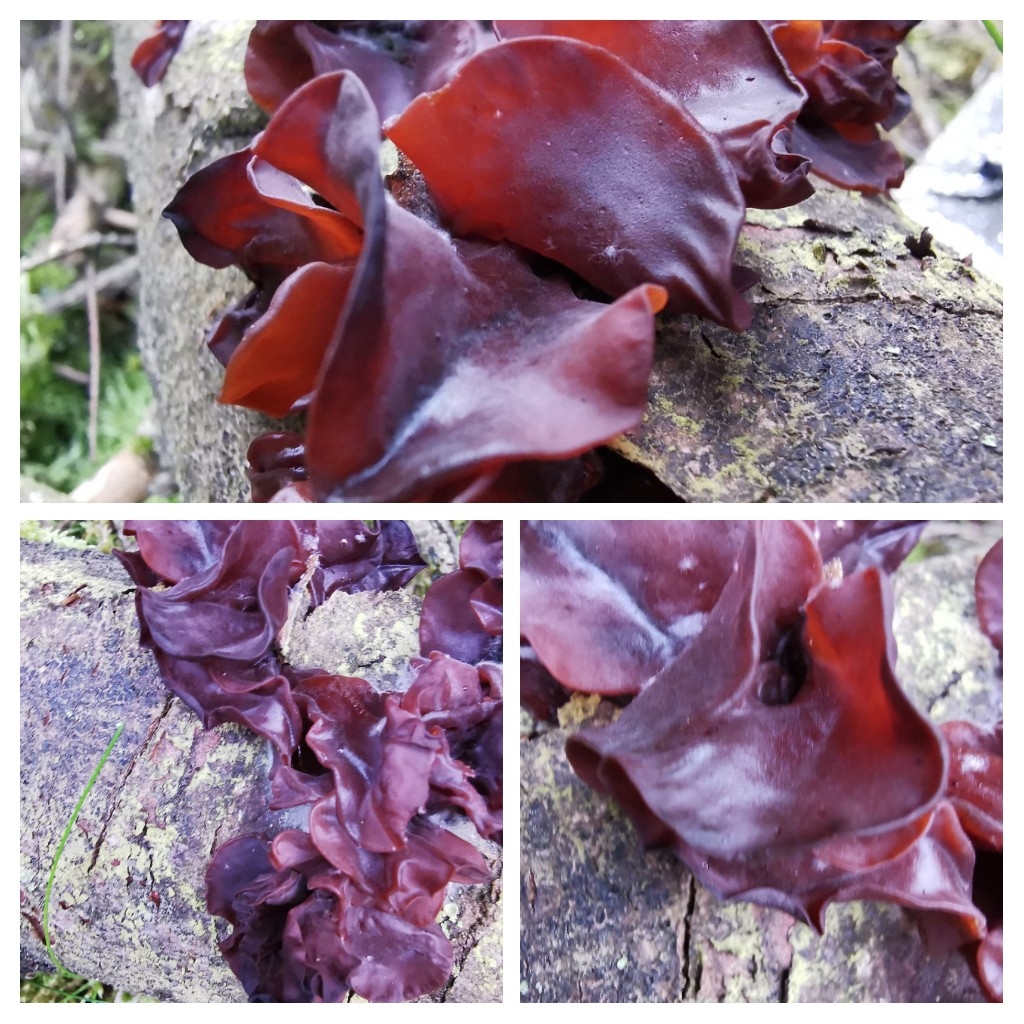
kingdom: Fungi
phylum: Basidiomycota
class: Tremellomycetes
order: Tremellales
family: Tremellaceae
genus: Phaeotremella
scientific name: Phaeotremella
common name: bævresvamp
